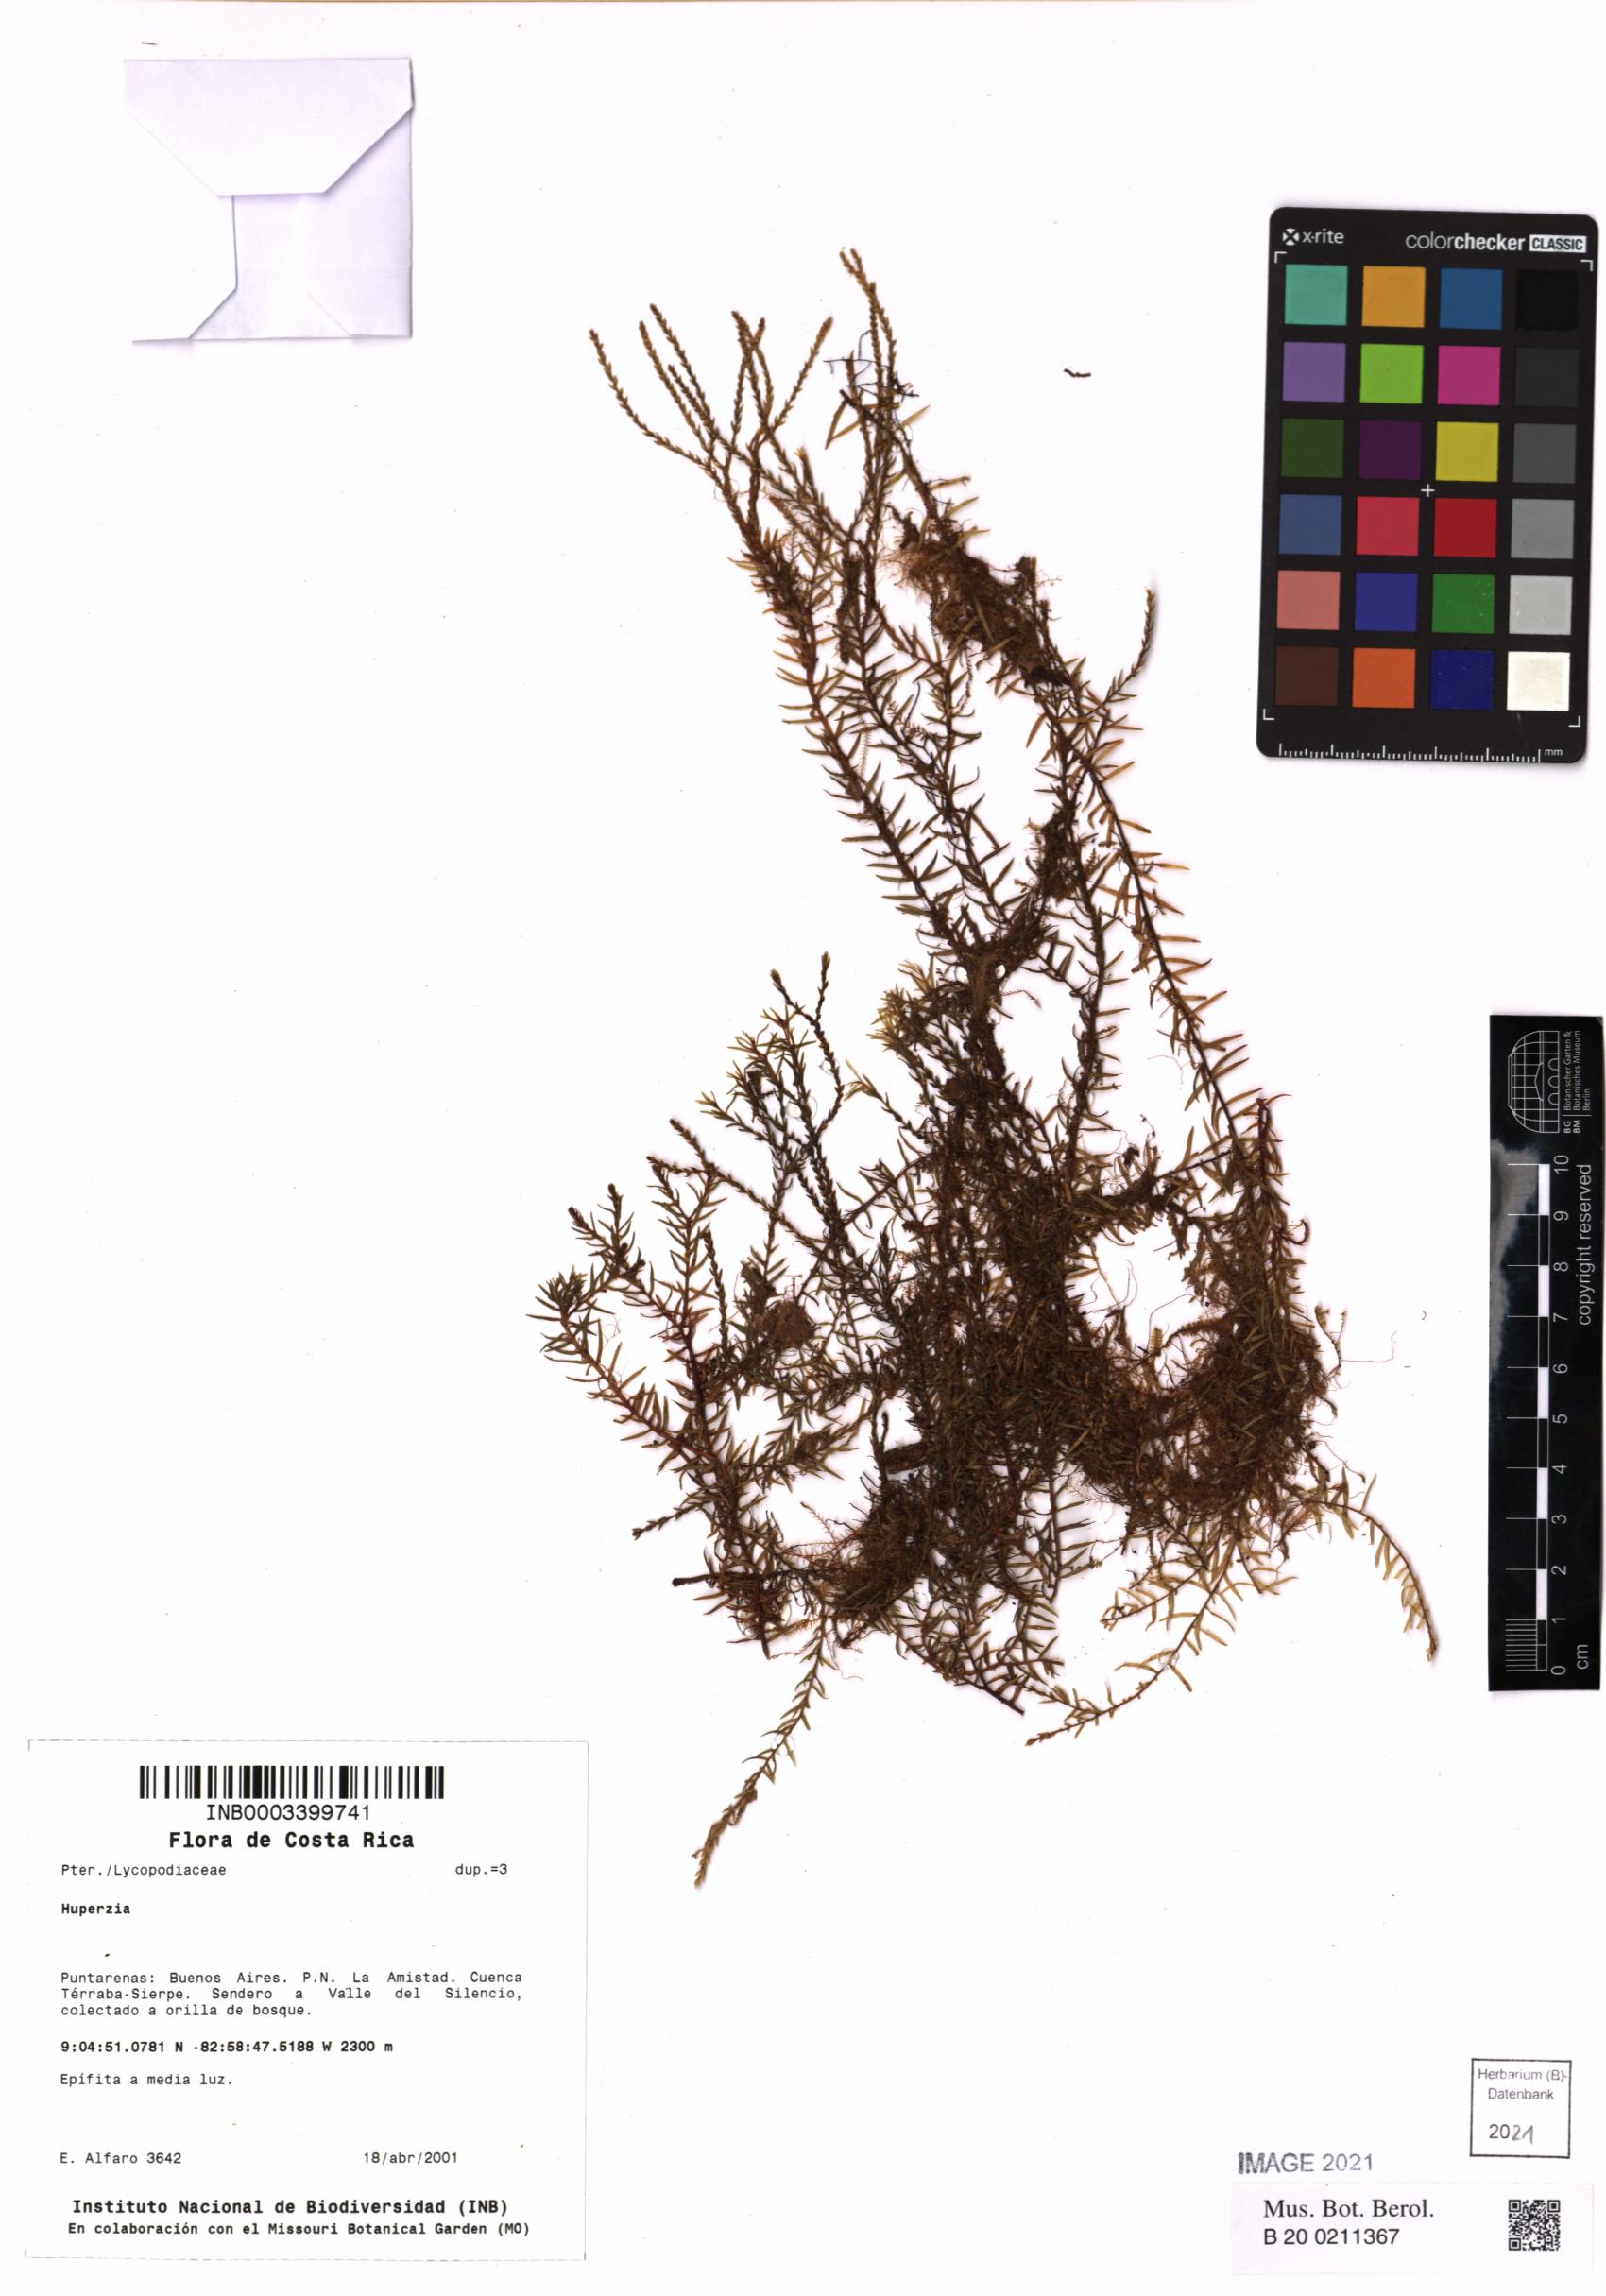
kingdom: Plantae
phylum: Tracheophyta
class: Lycopodiopsida
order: Lycopodiales
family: Lycopodiaceae
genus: Huperzia
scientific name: Huperzia
